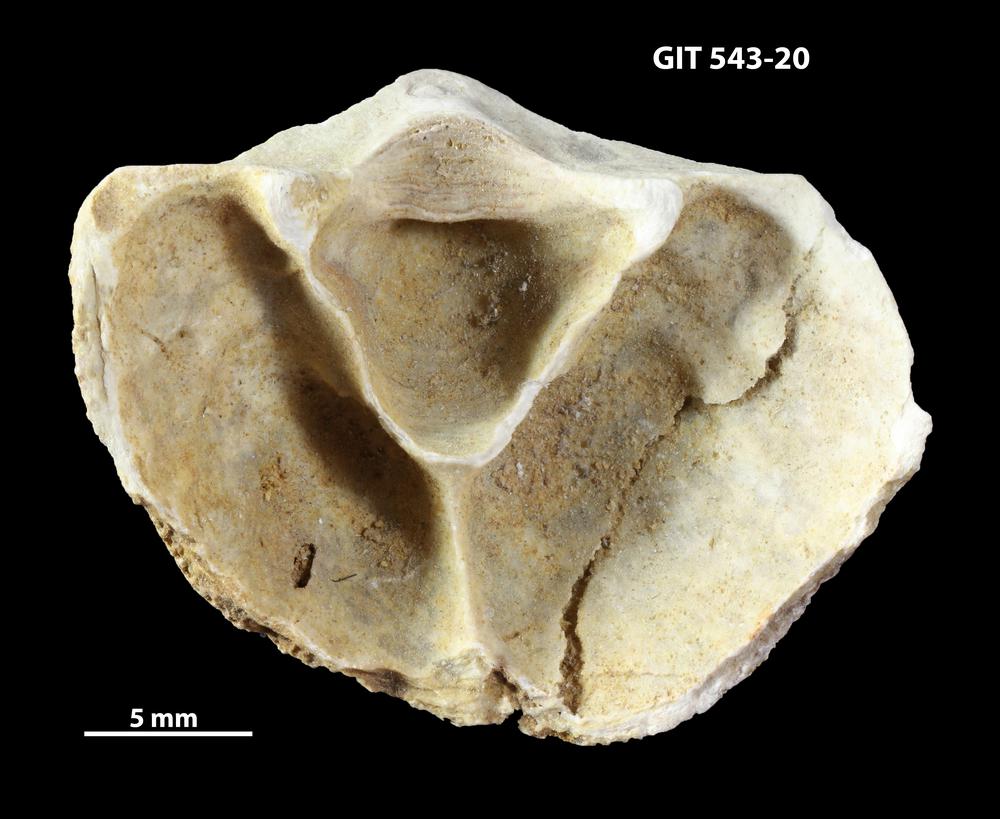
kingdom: Animalia
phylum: Brachiopoda
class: Rhynchonellata
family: Clitambonitidae
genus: Clitambonites
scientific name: Clitambonites
